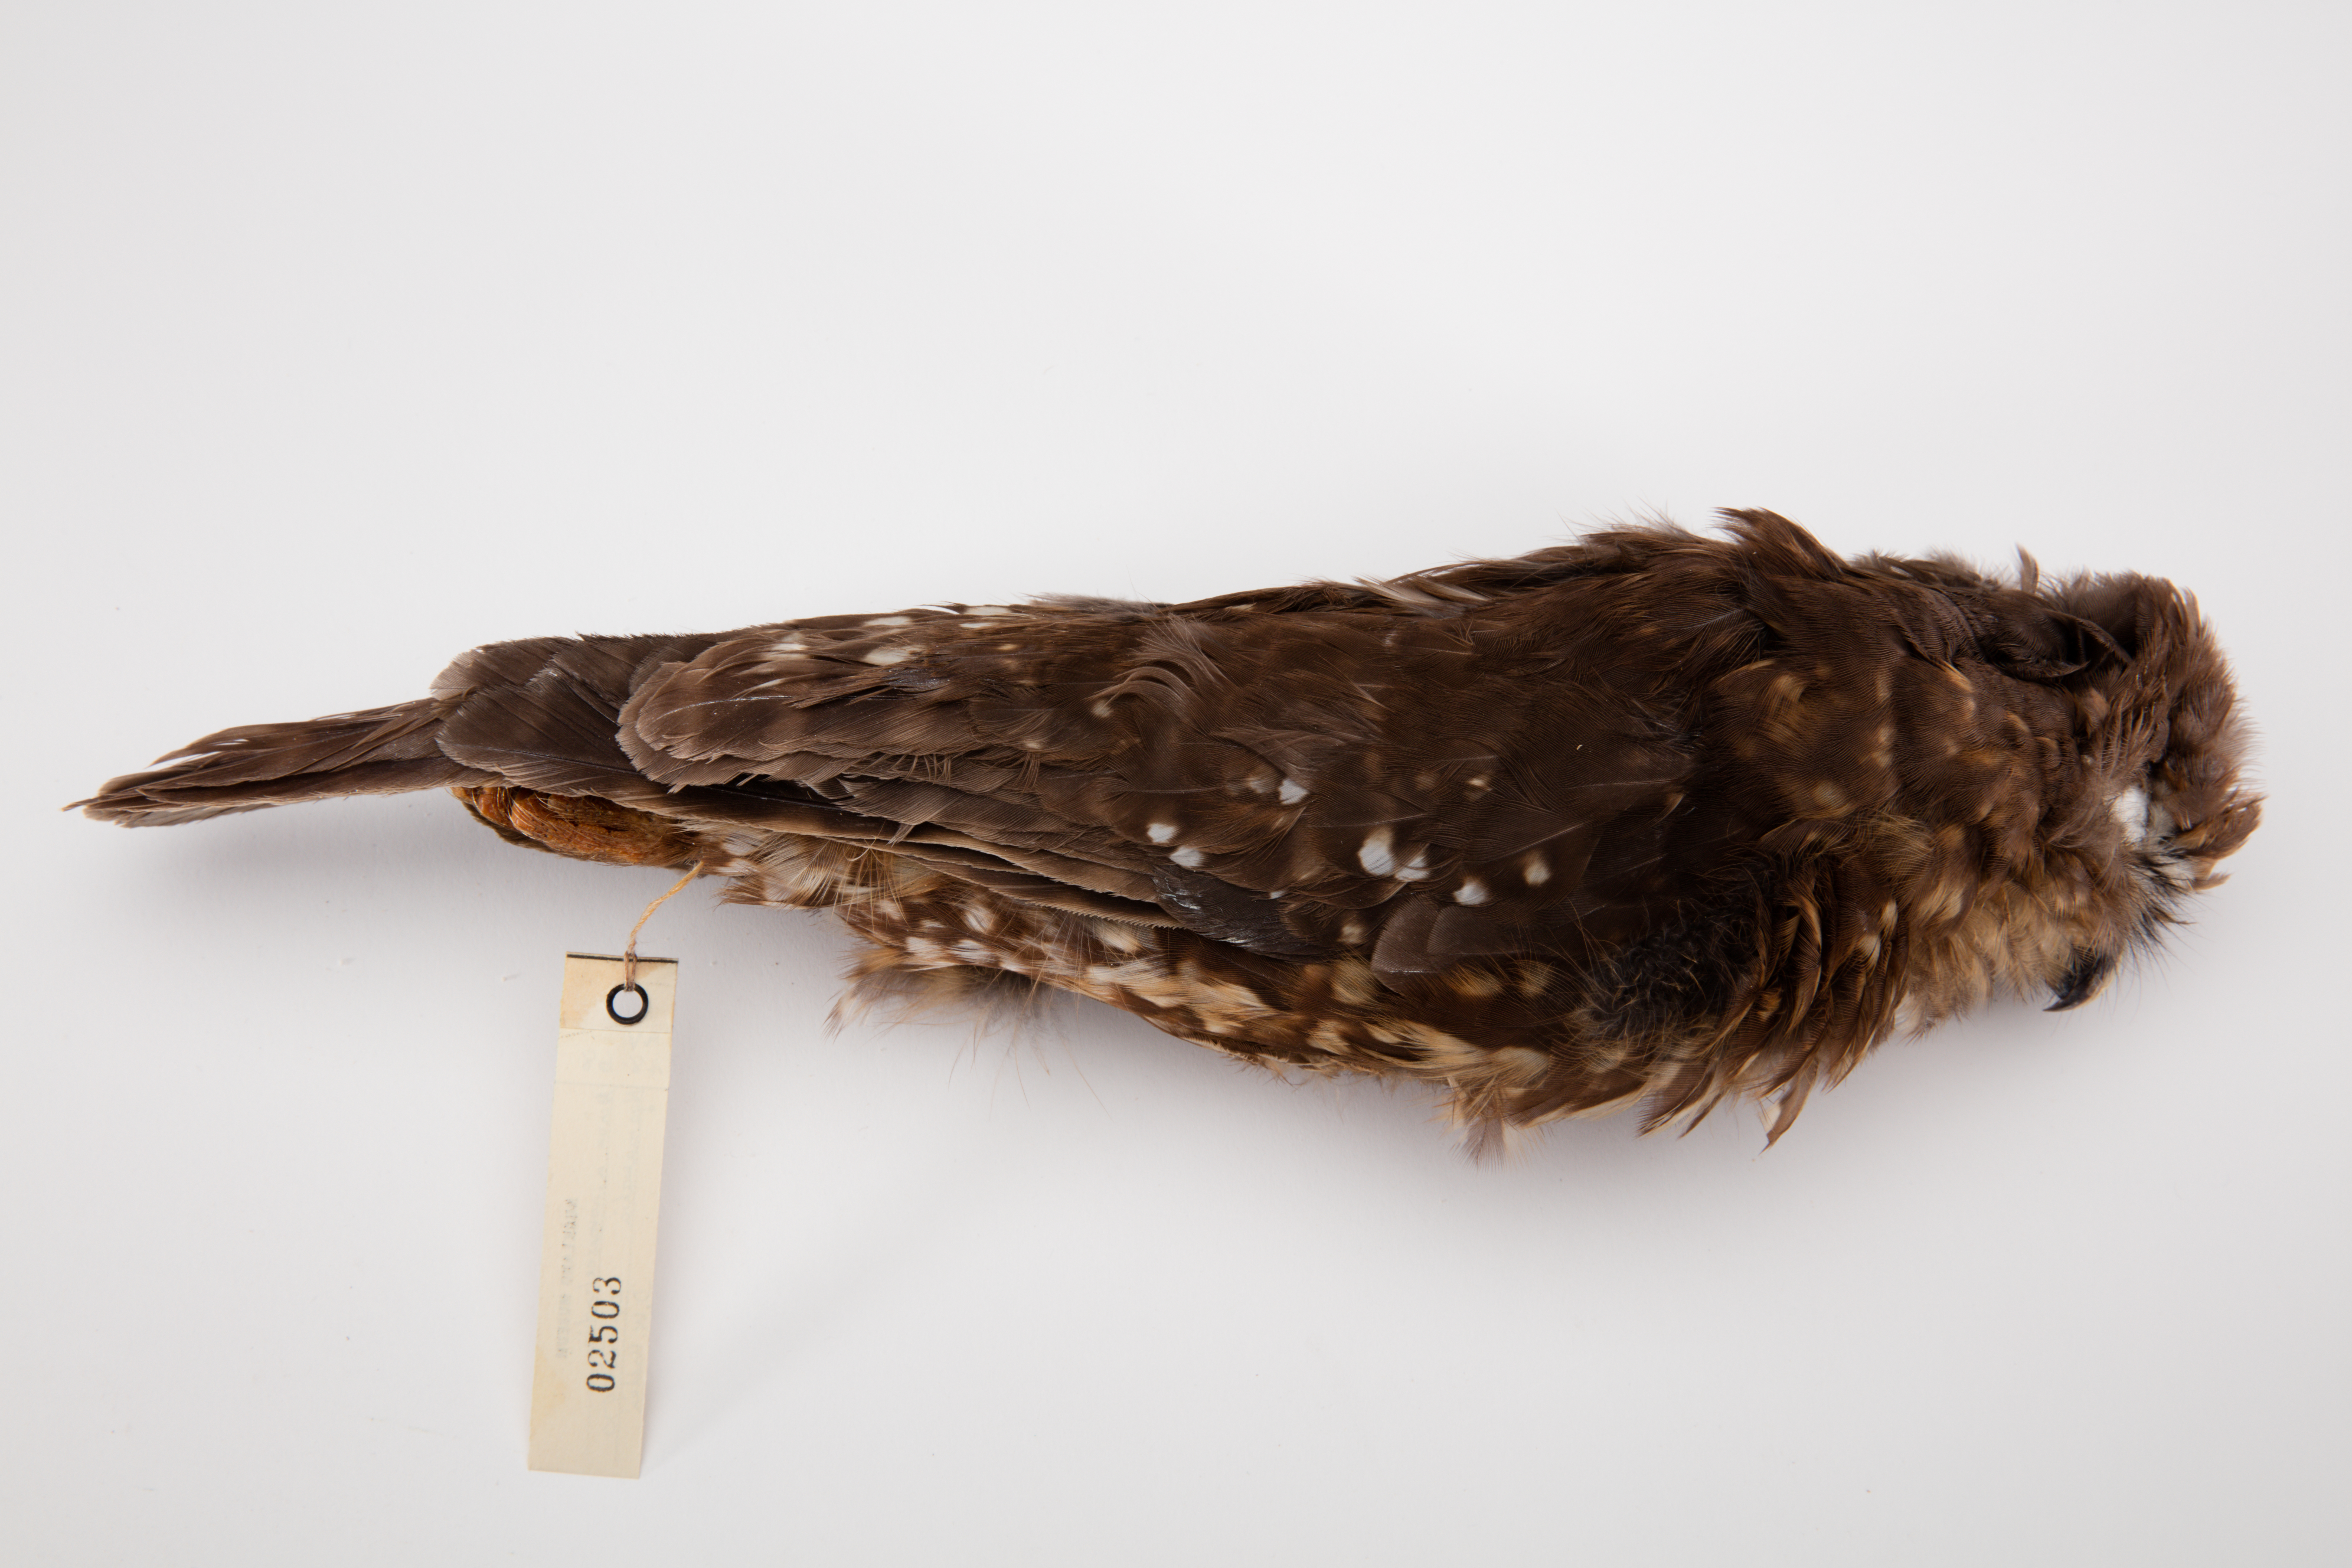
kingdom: Animalia
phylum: Chordata
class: Aves
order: Strigiformes
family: Strigidae
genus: Ninox
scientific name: Ninox novaeseelandiae
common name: Morepork
